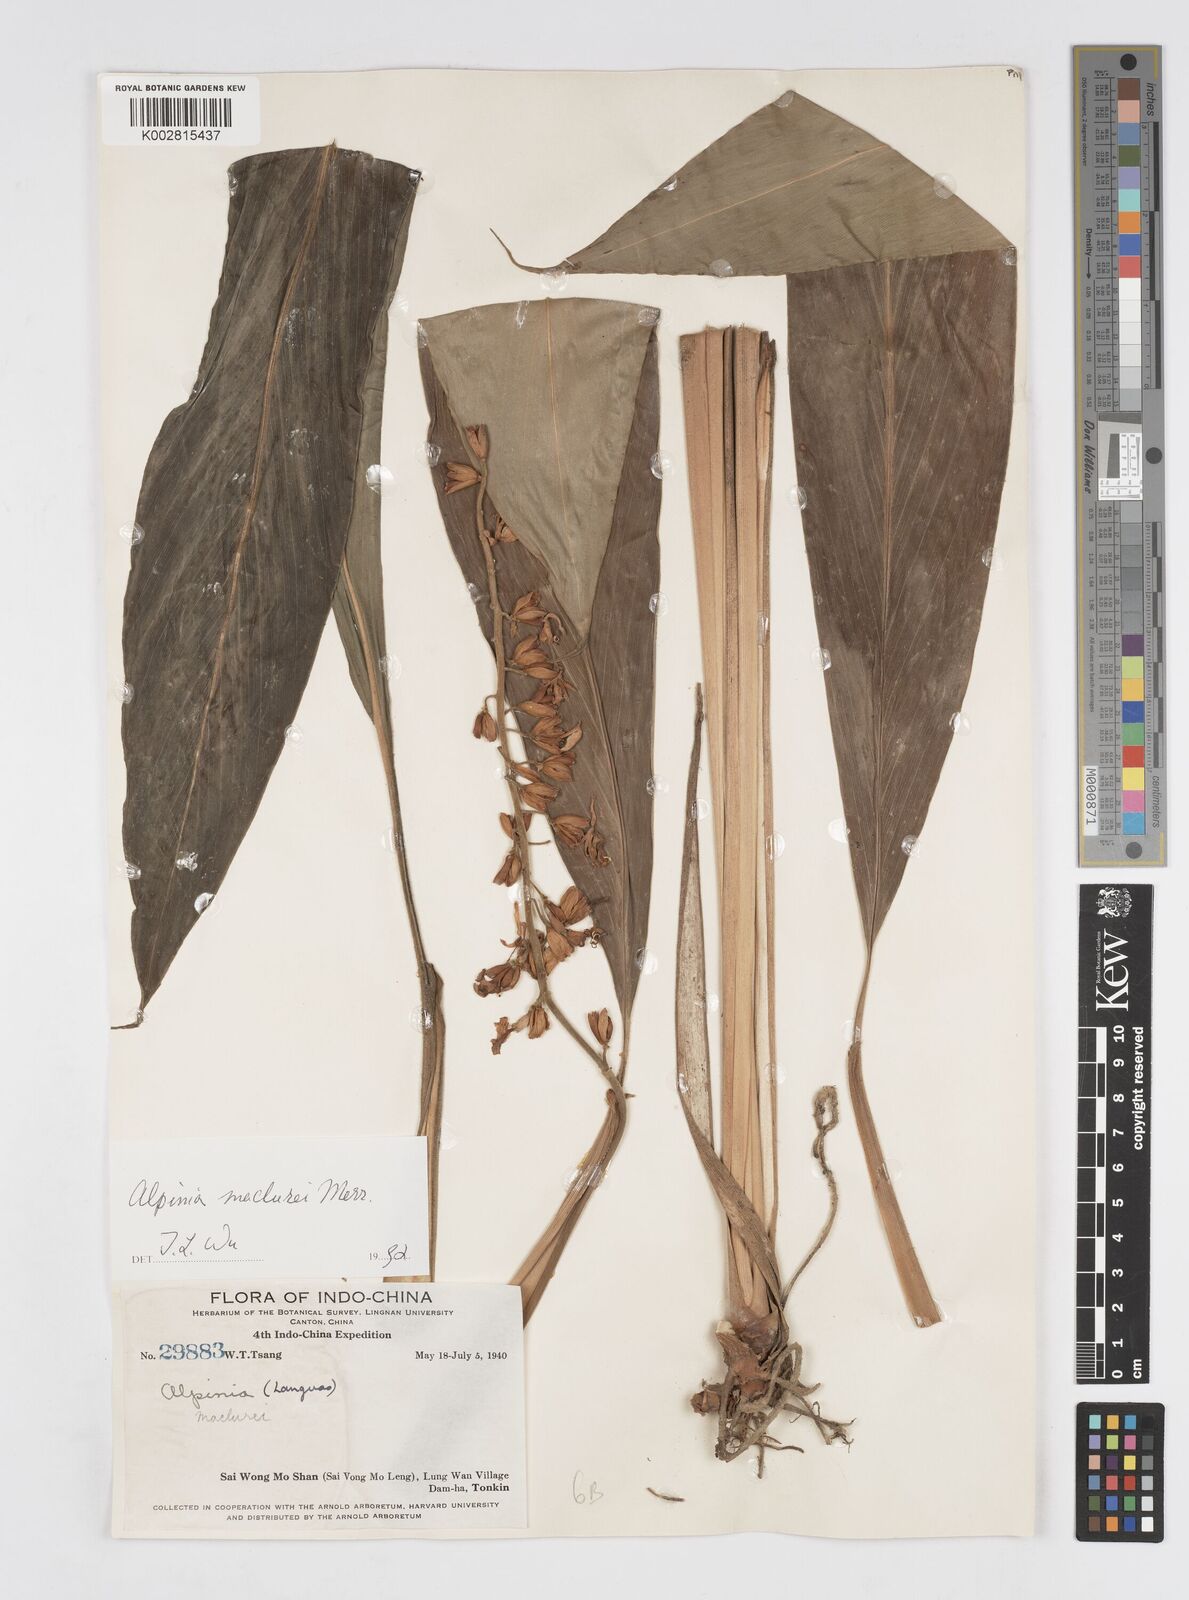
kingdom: Plantae
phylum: Tracheophyta
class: Liliopsida
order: Zingiberales
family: Zingiberaceae
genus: Alpinia
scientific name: Alpinia maclurei
